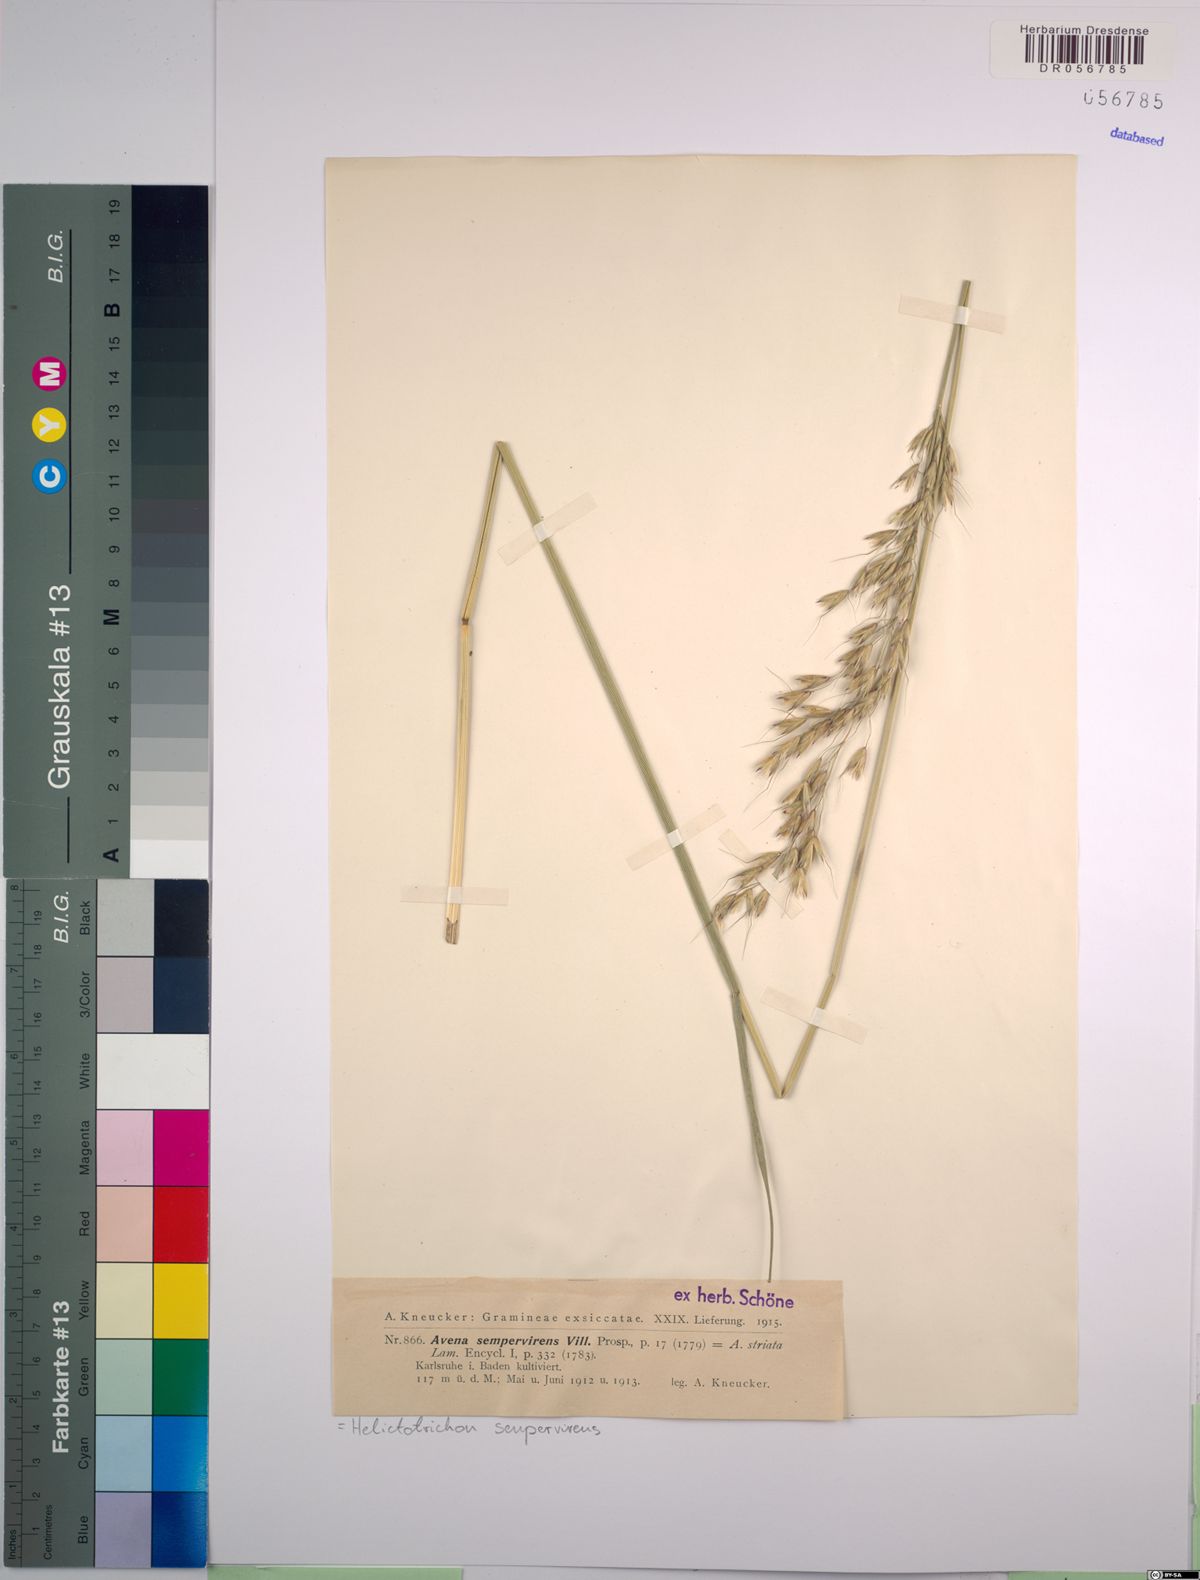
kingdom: Plantae
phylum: Tracheophyta
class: Liliopsida
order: Poales
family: Poaceae
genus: Helictotrichon
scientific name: Helictotrichon sempervirens
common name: Blue oat-grass
